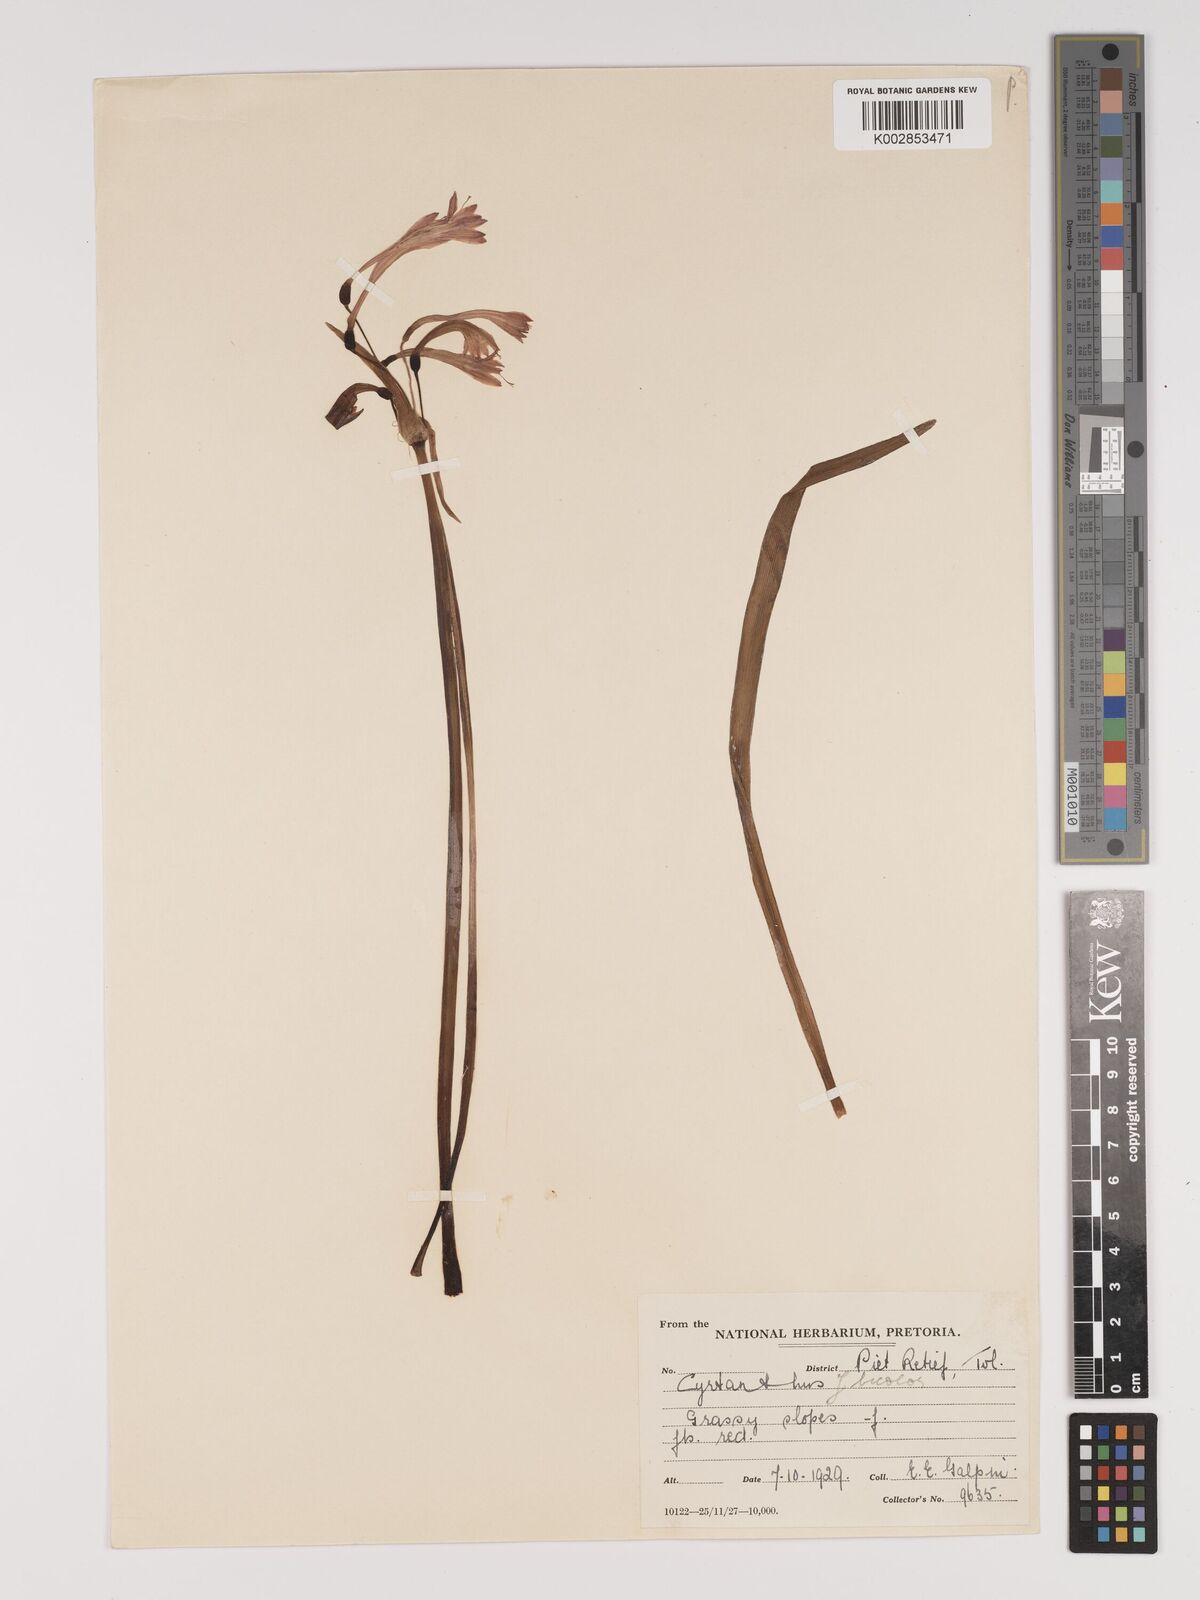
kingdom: Plantae
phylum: Tracheophyta
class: Liliopsida
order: Asparagales
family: Amaryllidaceae
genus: Cyrtanthus
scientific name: Cyrtanthus bicolor
